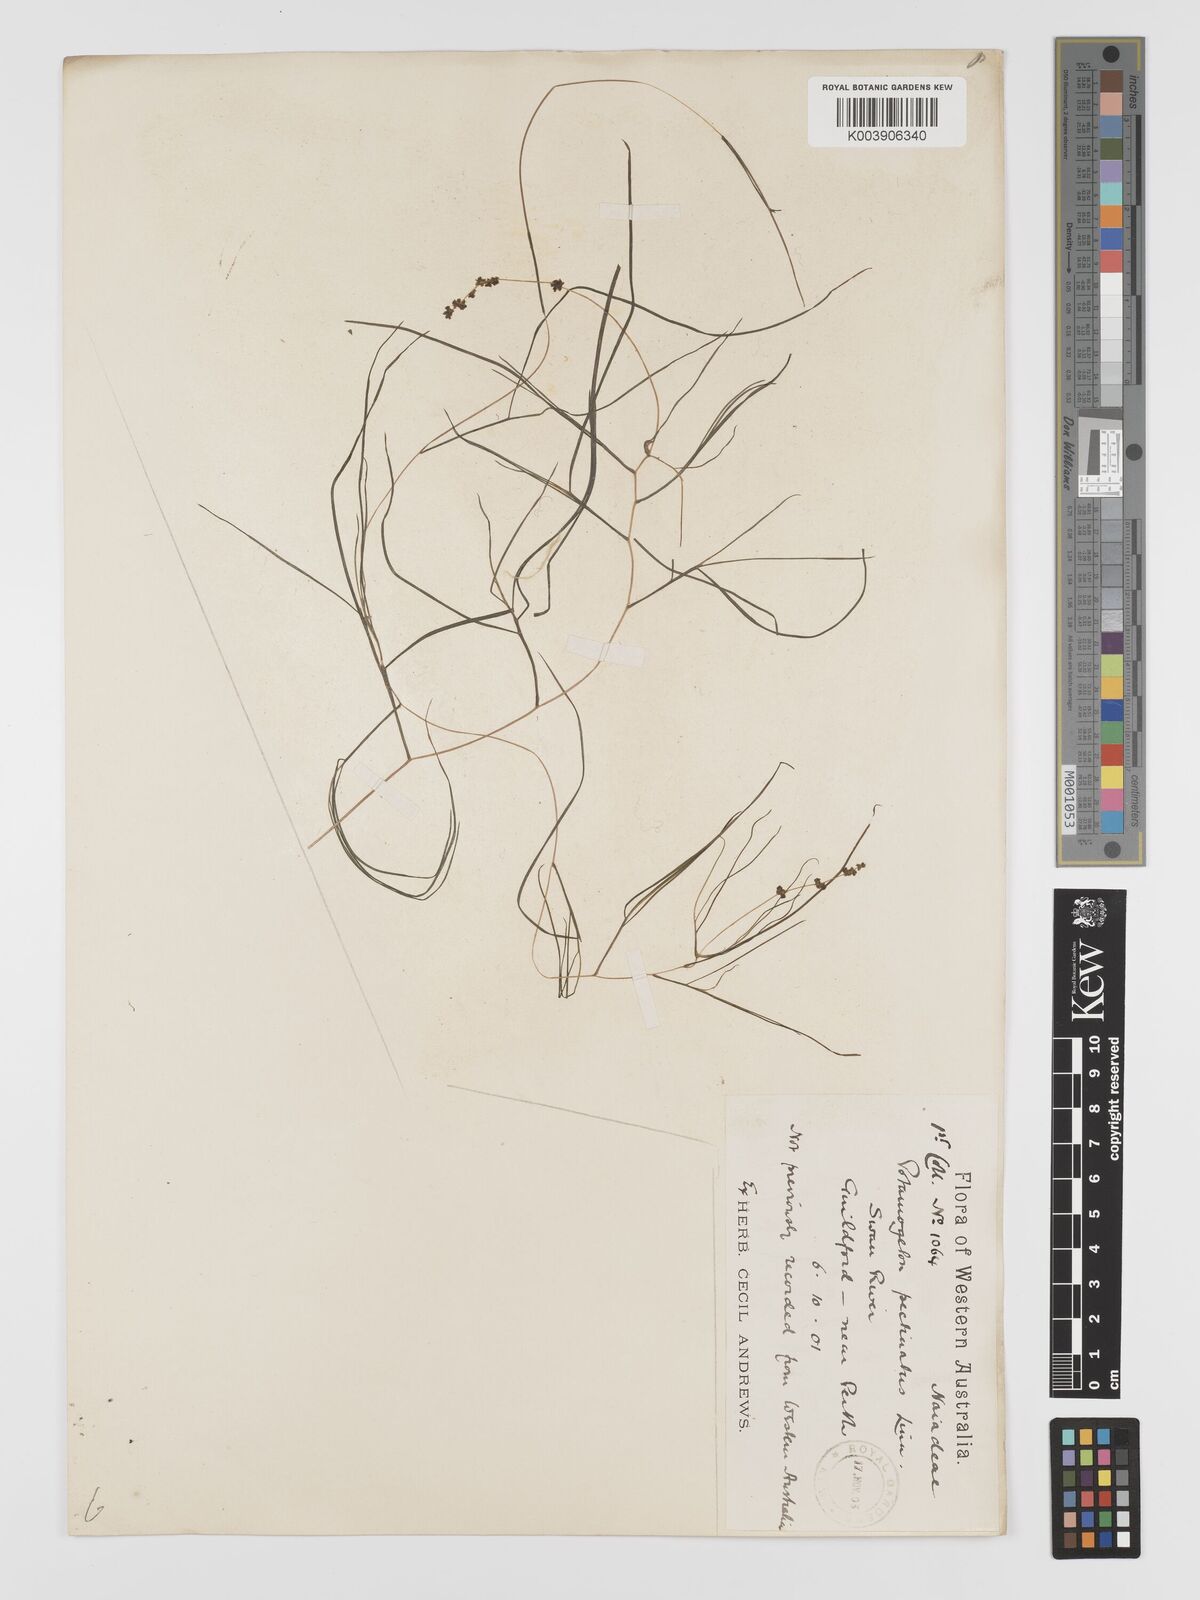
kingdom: Plantae
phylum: Tracheophyta
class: Liliopsida
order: Alismatales
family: Potamogetonaceae
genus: Stuckenia
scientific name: Stuckenia pectinata
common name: Sago pondweed
